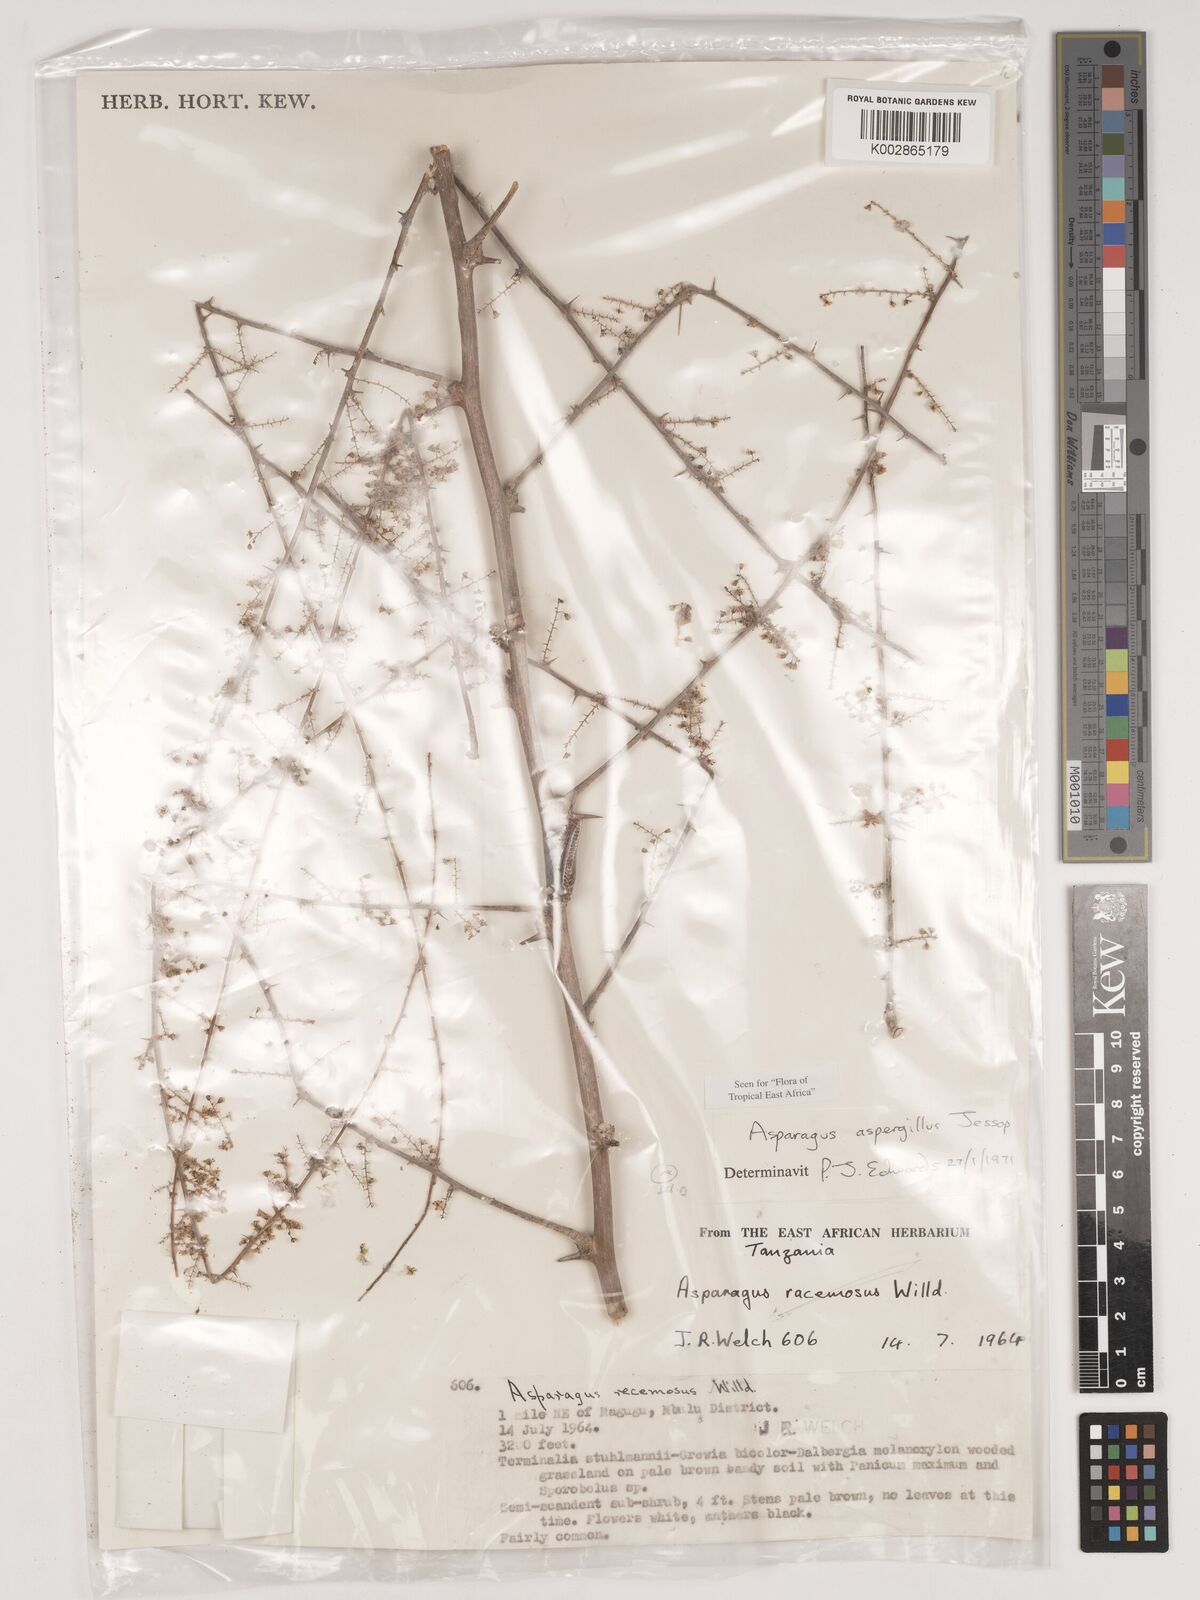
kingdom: Plantae
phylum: Tracheophyta
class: Liliopsida
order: Asparagales
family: Asparagaceae
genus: Asparagus
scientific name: Asparagus aspergillus
